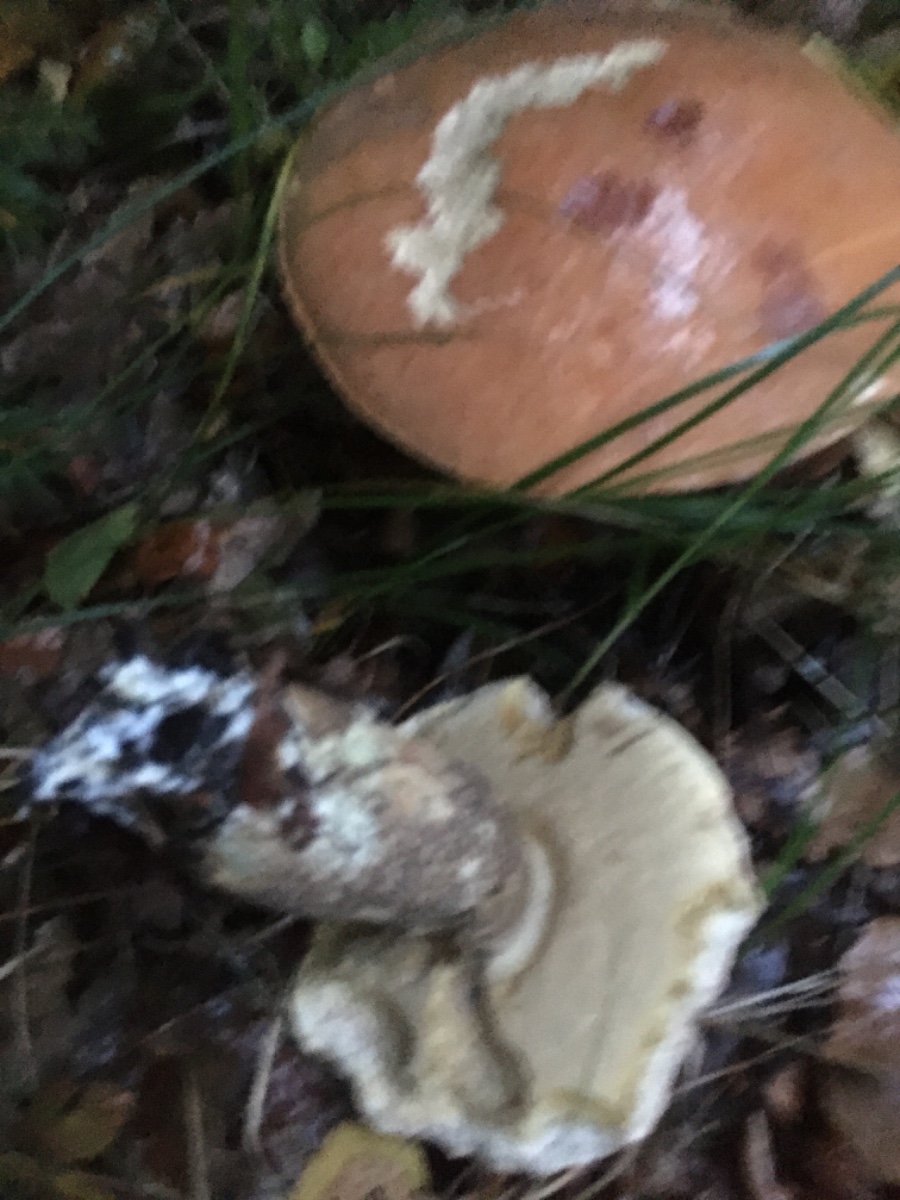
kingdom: Fungi
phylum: Basidiomycota
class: Agaricomycetes
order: Boletales
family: Boletaceae
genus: Leccinum
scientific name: Leccinum versipelle
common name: orange skælrørhat
